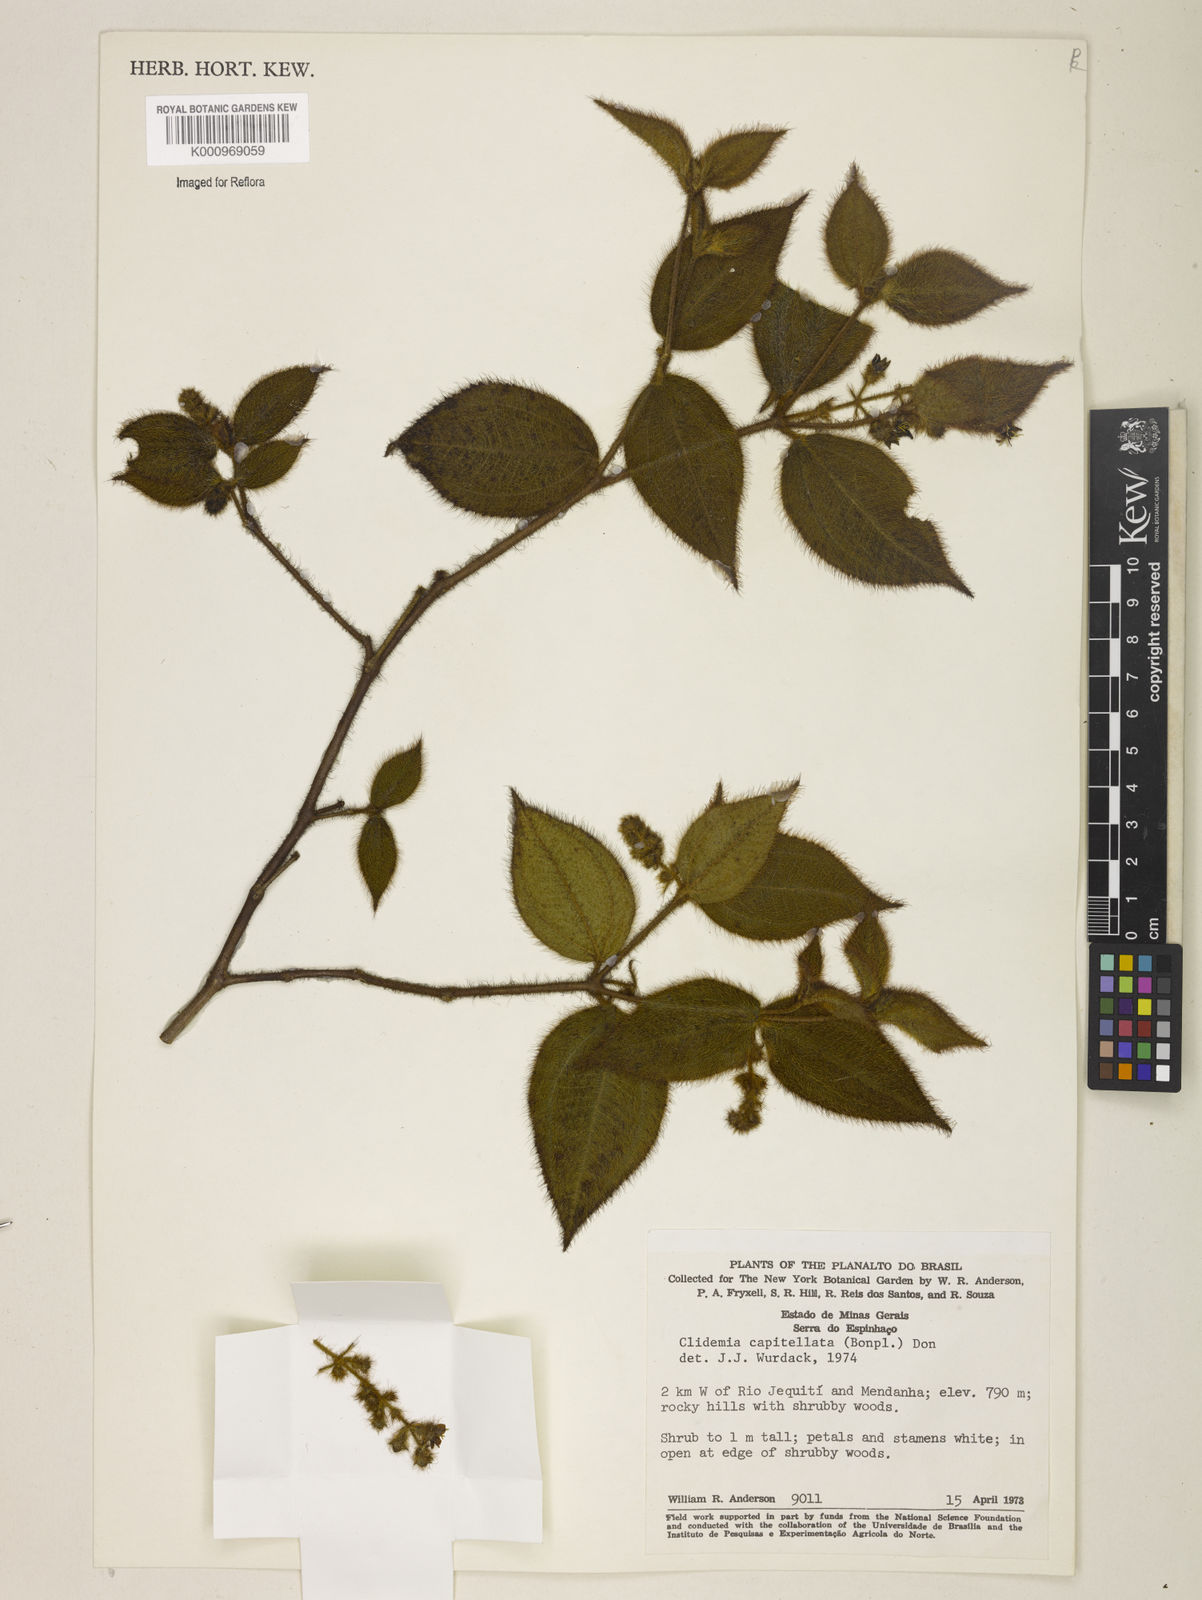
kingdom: Plantae
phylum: Tracheophyta
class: Magnoliopsida
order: Myrtales
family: Melastomataceae
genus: Miconia
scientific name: Miconia dependens
